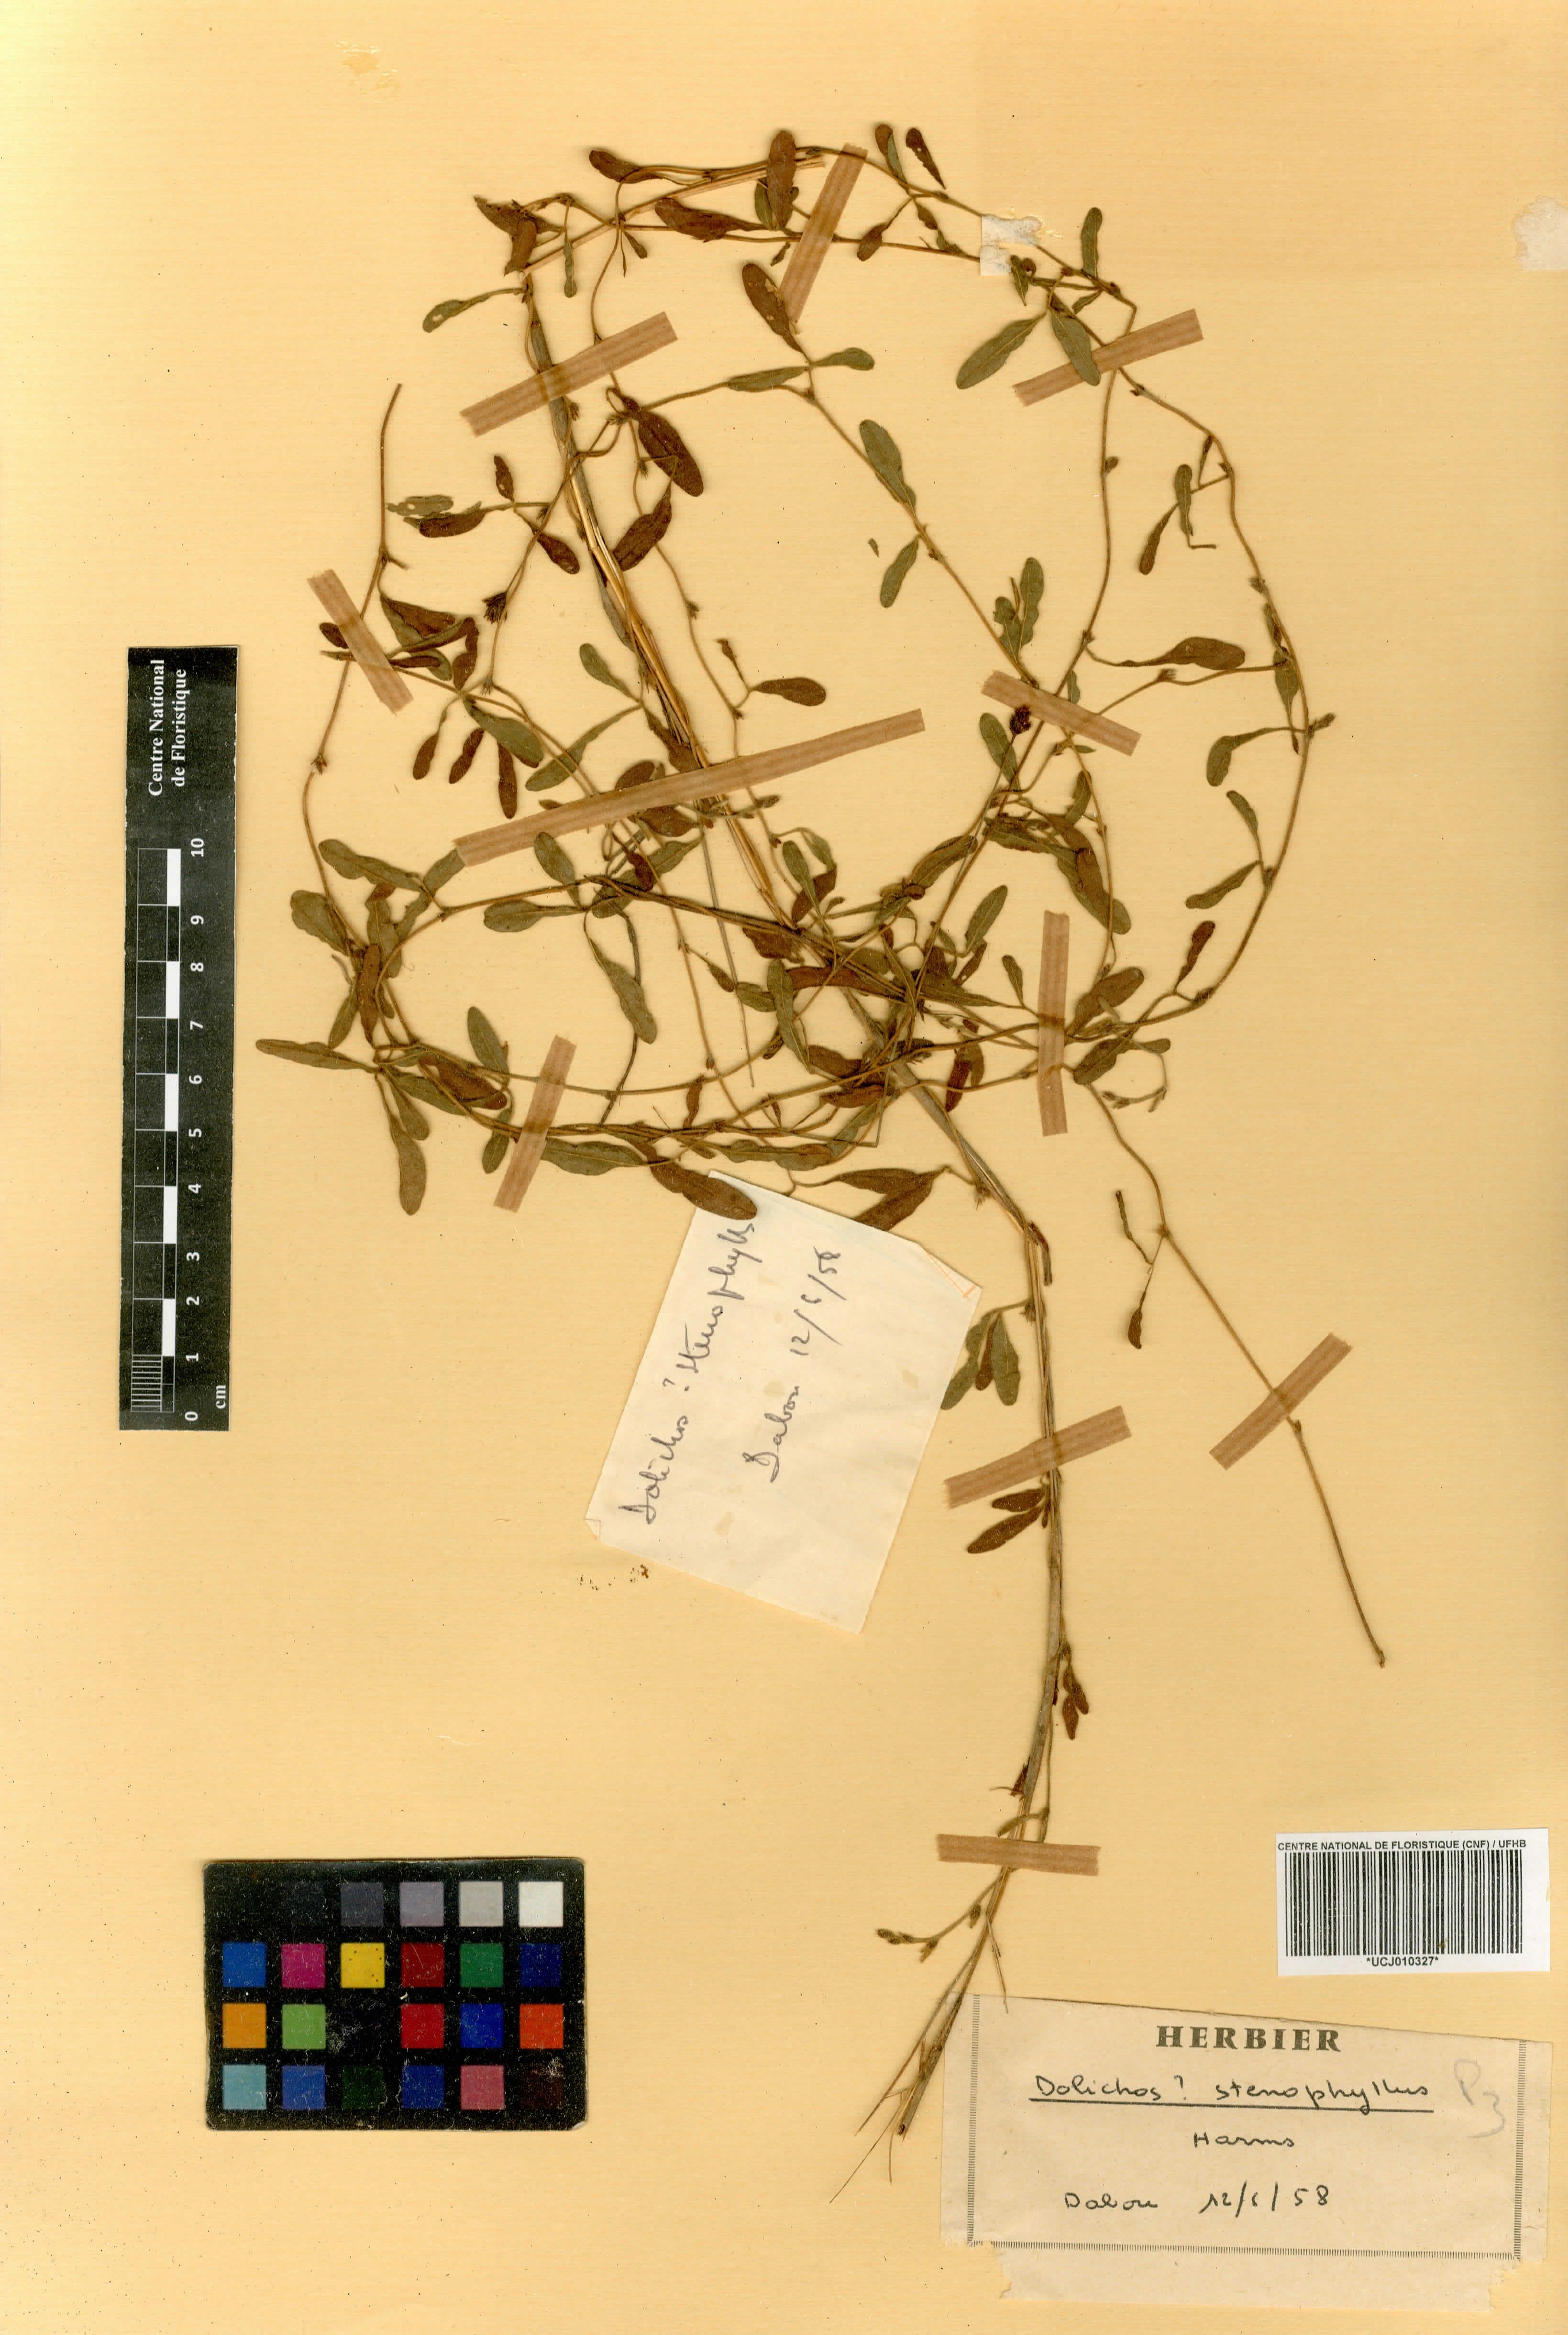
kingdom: Plantae
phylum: Tracheophyta
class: Magnoliopsida
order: Fabales
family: Fabaceae
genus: Macrotyloma
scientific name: Macrotyloma stenophyllum
